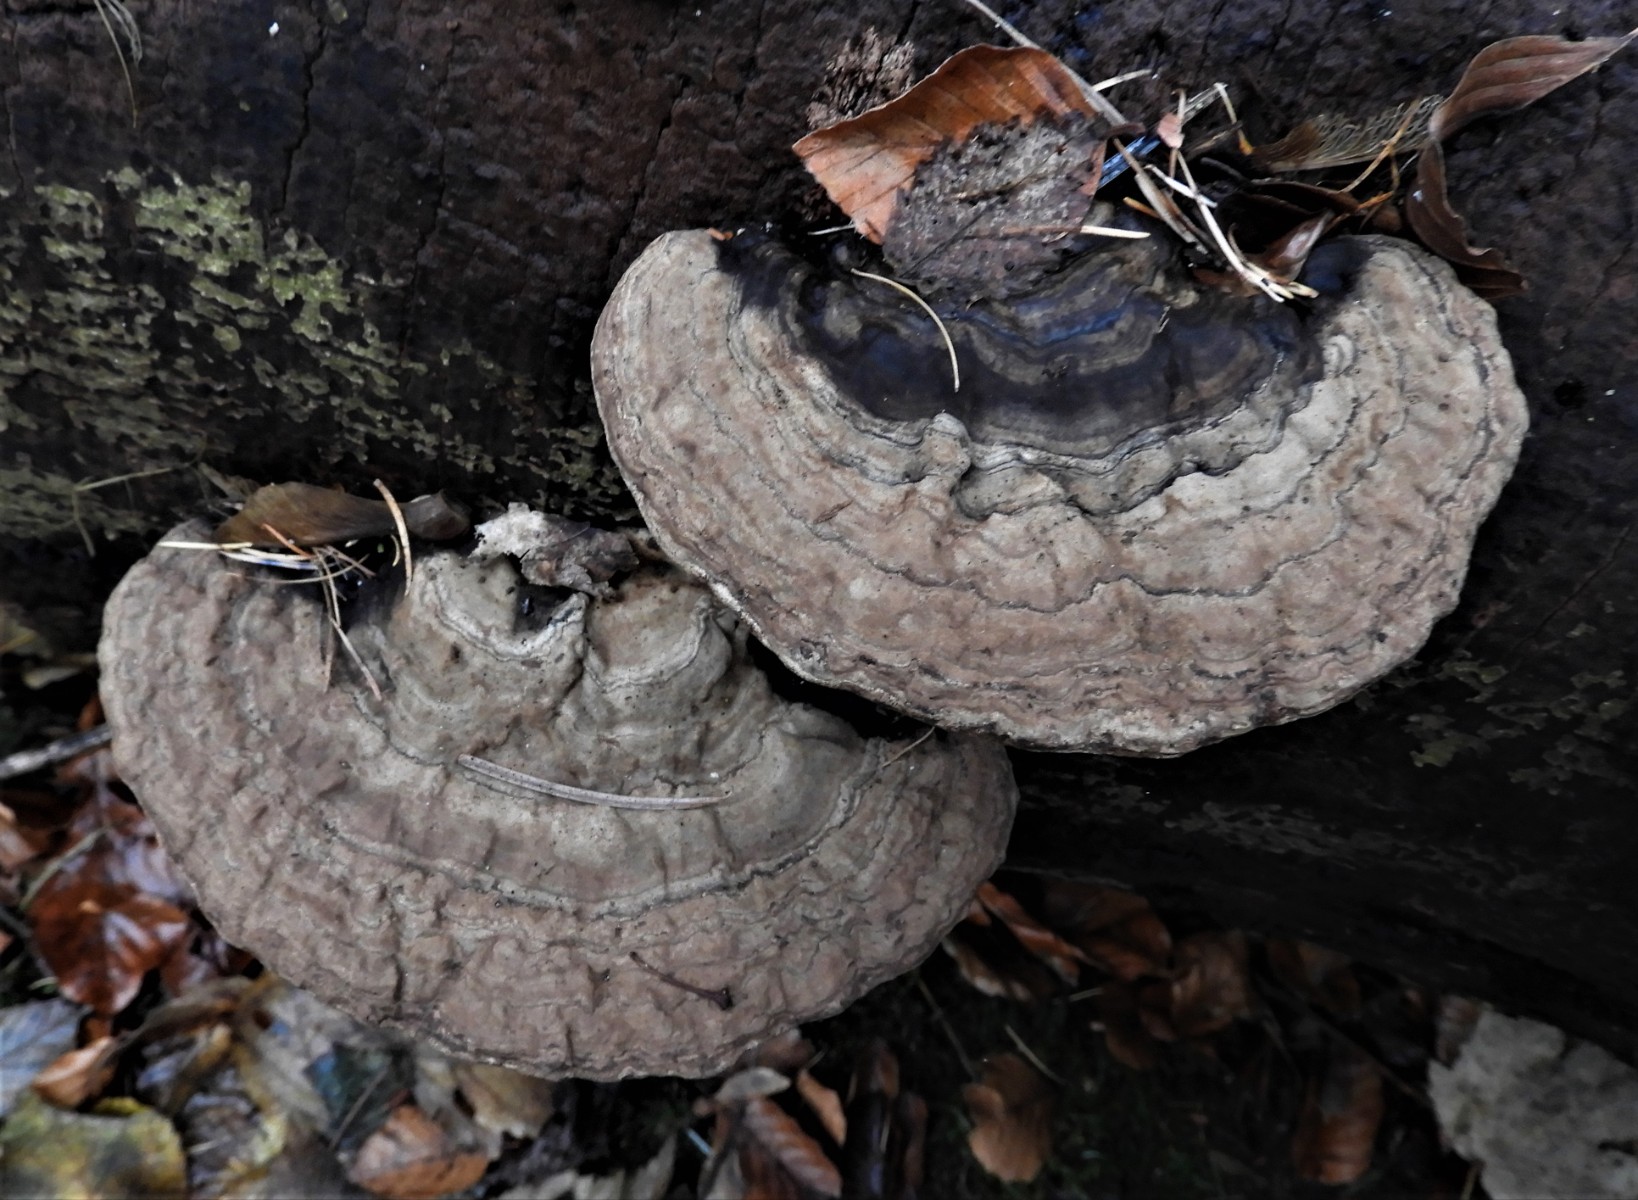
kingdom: Fungi
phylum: Basidiomycota
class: Agaricomycetes
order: Polyporales
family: Polyporaceae
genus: Ganoderma
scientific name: Ganoderma applanatum
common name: flad lakporesvamp
